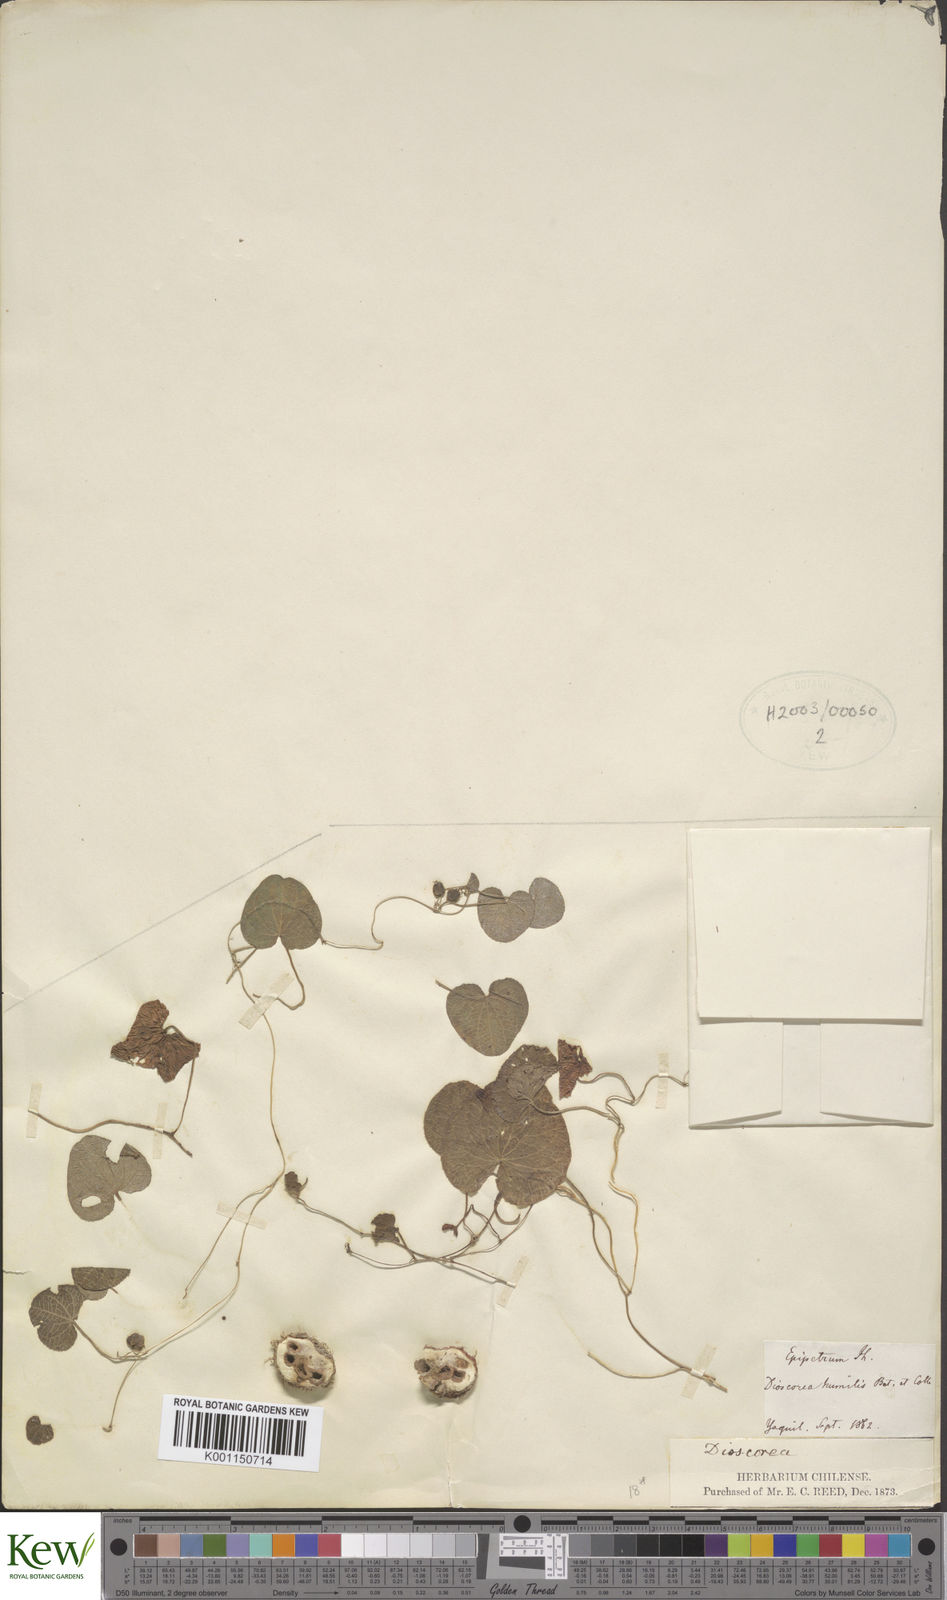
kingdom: Plantae
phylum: Tracheophyta
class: Liliopsida
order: Dioscoreales
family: Dioscoreaceae
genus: Dioscorea
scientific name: Dioscorea humilis
